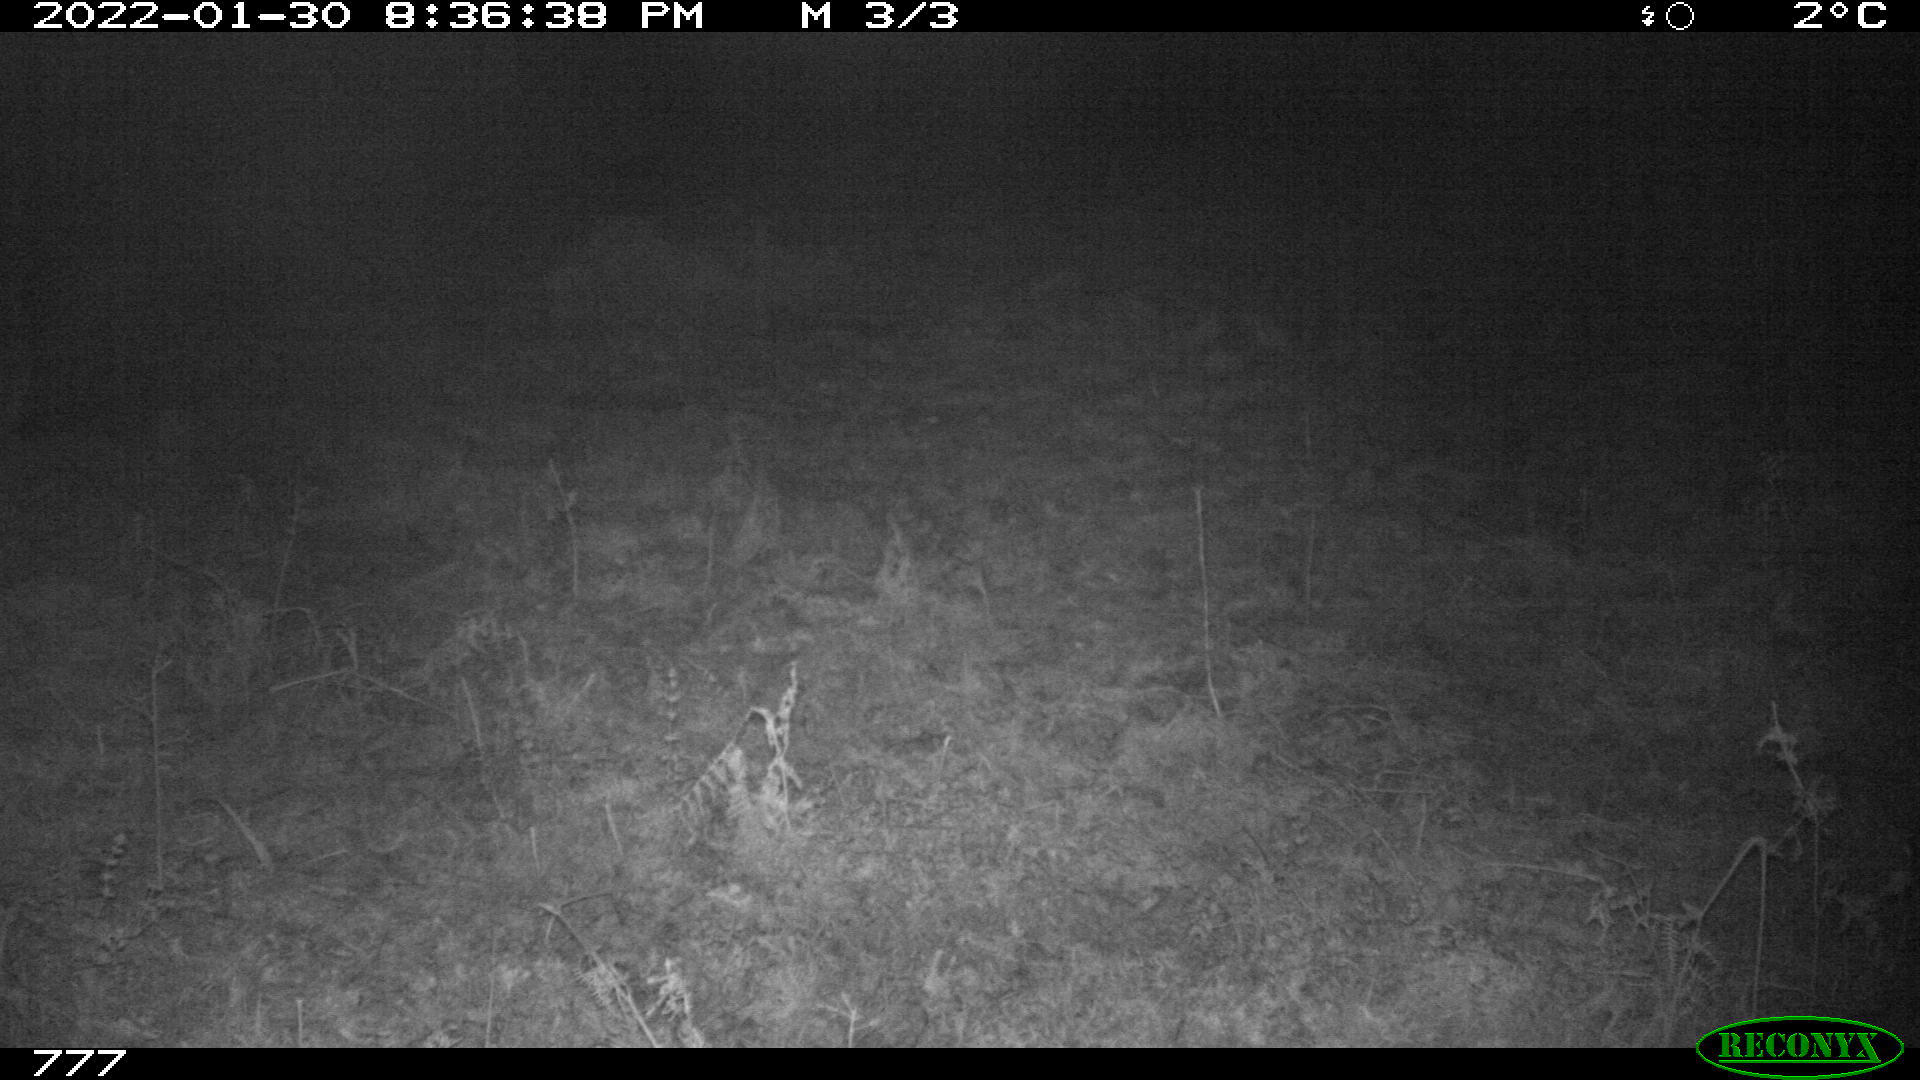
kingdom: Animalia
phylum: Chordata
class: Mammalia
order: Artiodactyla
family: Bovidae
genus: Bos
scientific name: Bos taurus
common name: Domesticated cattle
